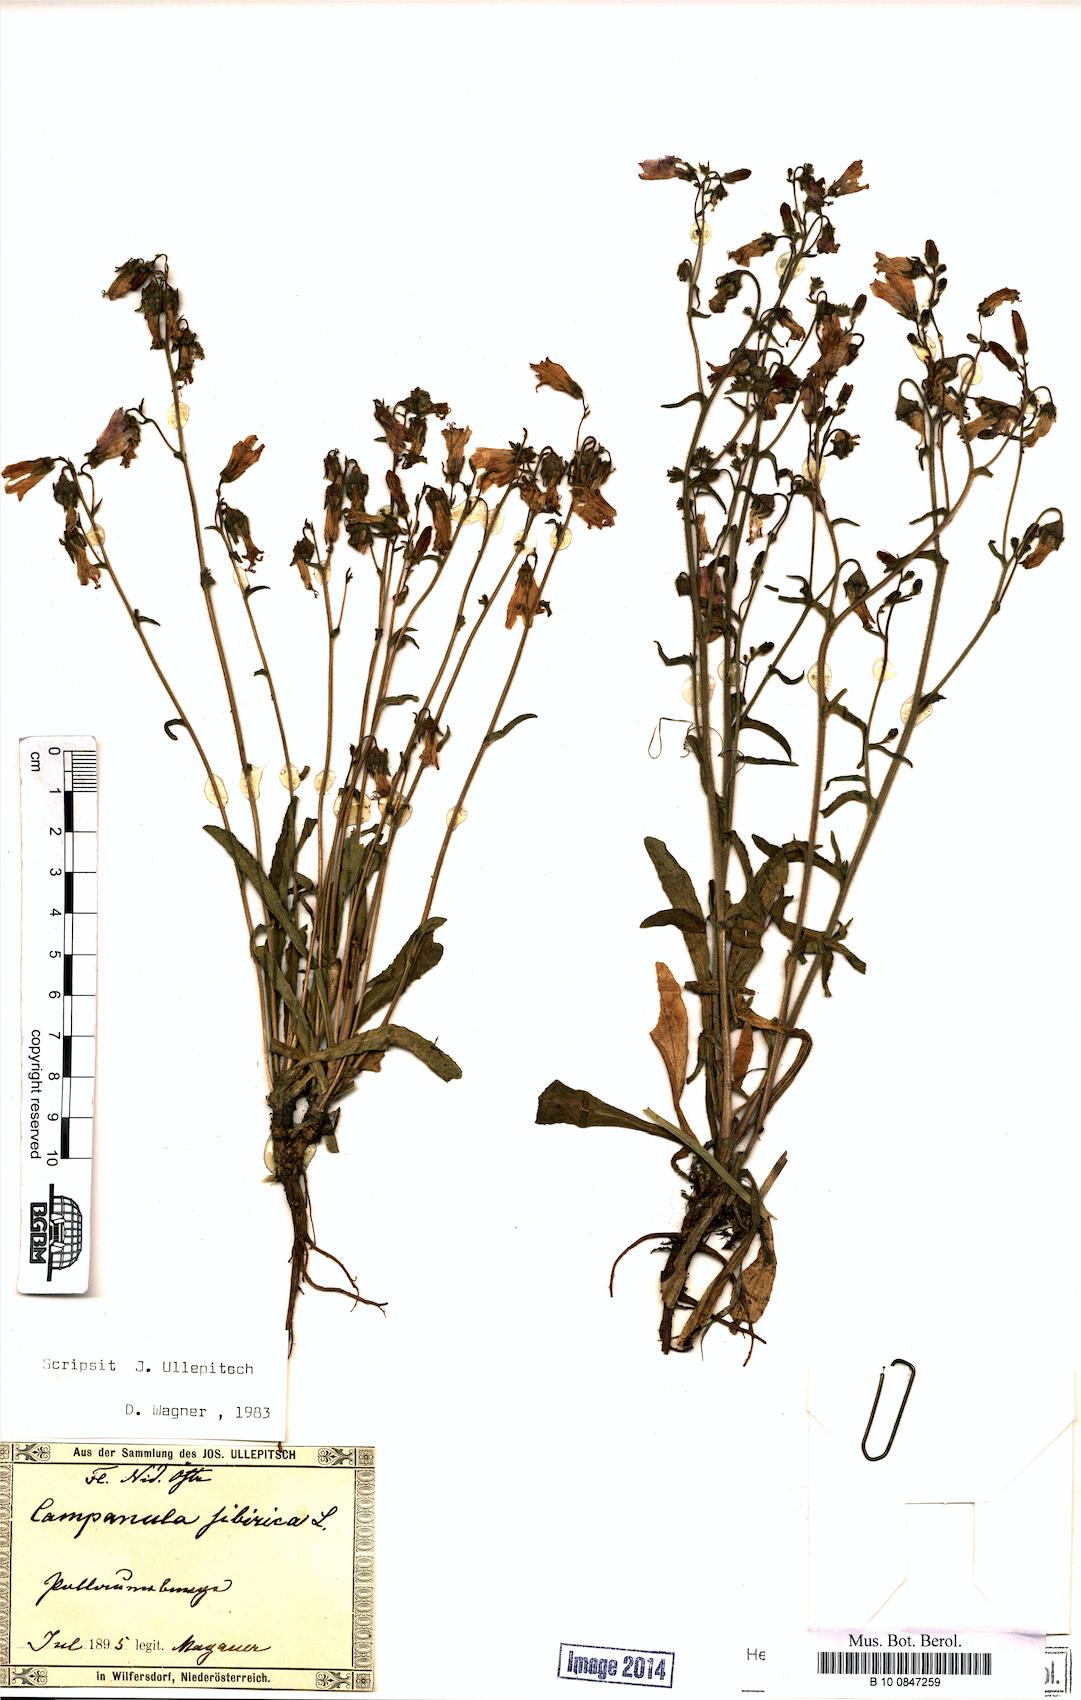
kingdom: Plantae
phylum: Tracheophyta
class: Magnoliopsida
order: Asterales
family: Campanulaceae
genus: Campanula
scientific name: Campanula sibirica
